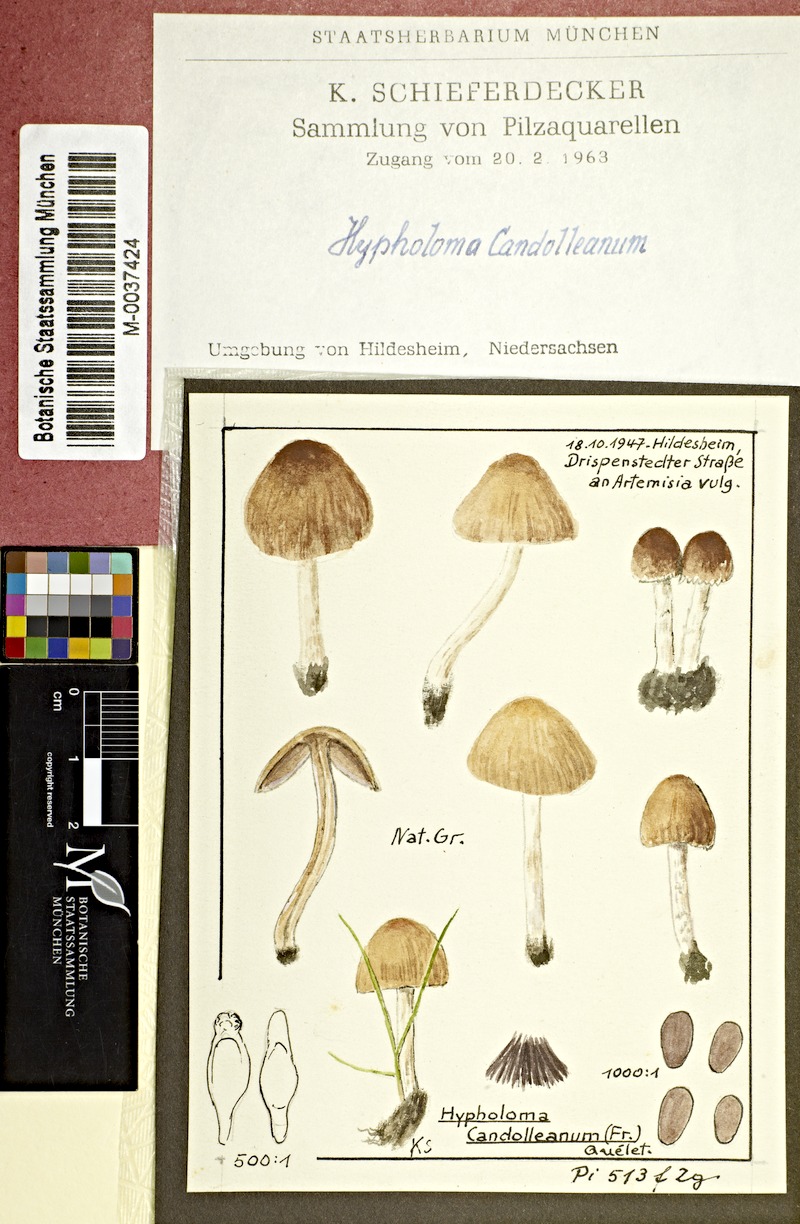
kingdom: Fungi
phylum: Basidiomycota
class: Agaricomycetes
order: Agaricales
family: Psathyrellaceae
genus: Candolleomyces
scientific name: Candolleomyces candolleanus
